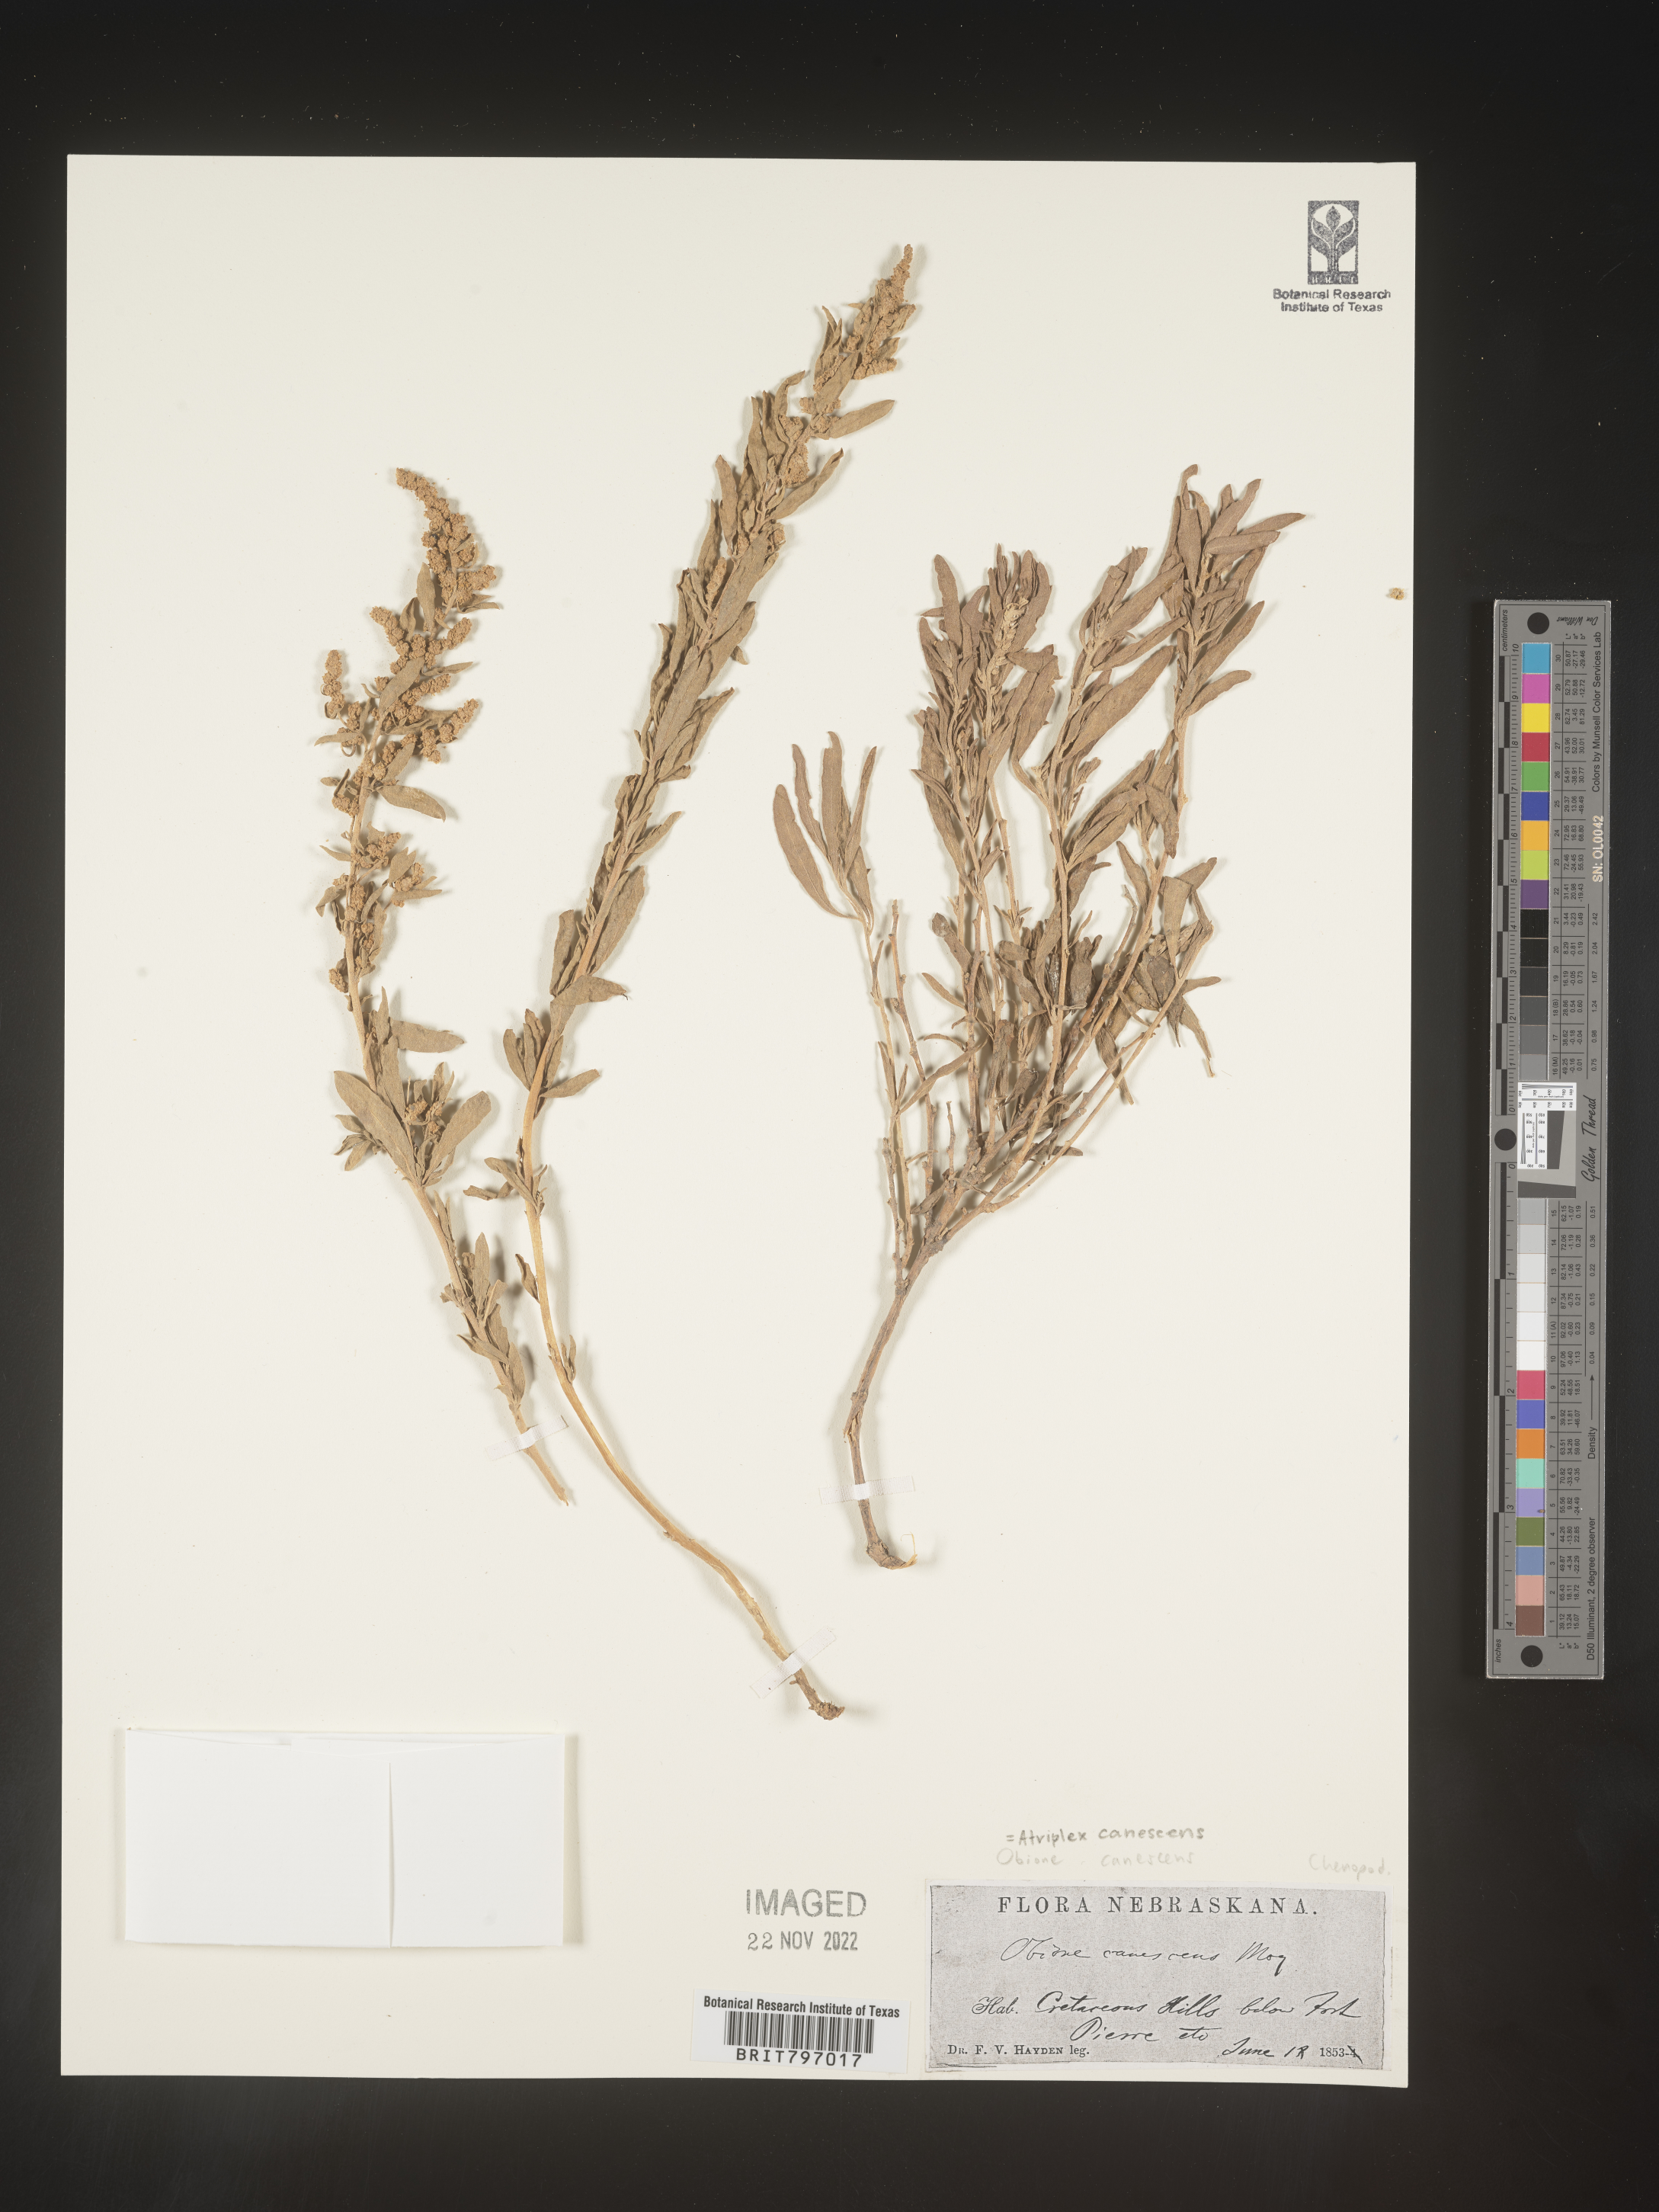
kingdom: Plantae
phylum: Tracheophyta
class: Magnoliopsida
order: Caryophyllales
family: Amaranthaceae
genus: Atriplex
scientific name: Atriplex canescens
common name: Four-wing saltbush
